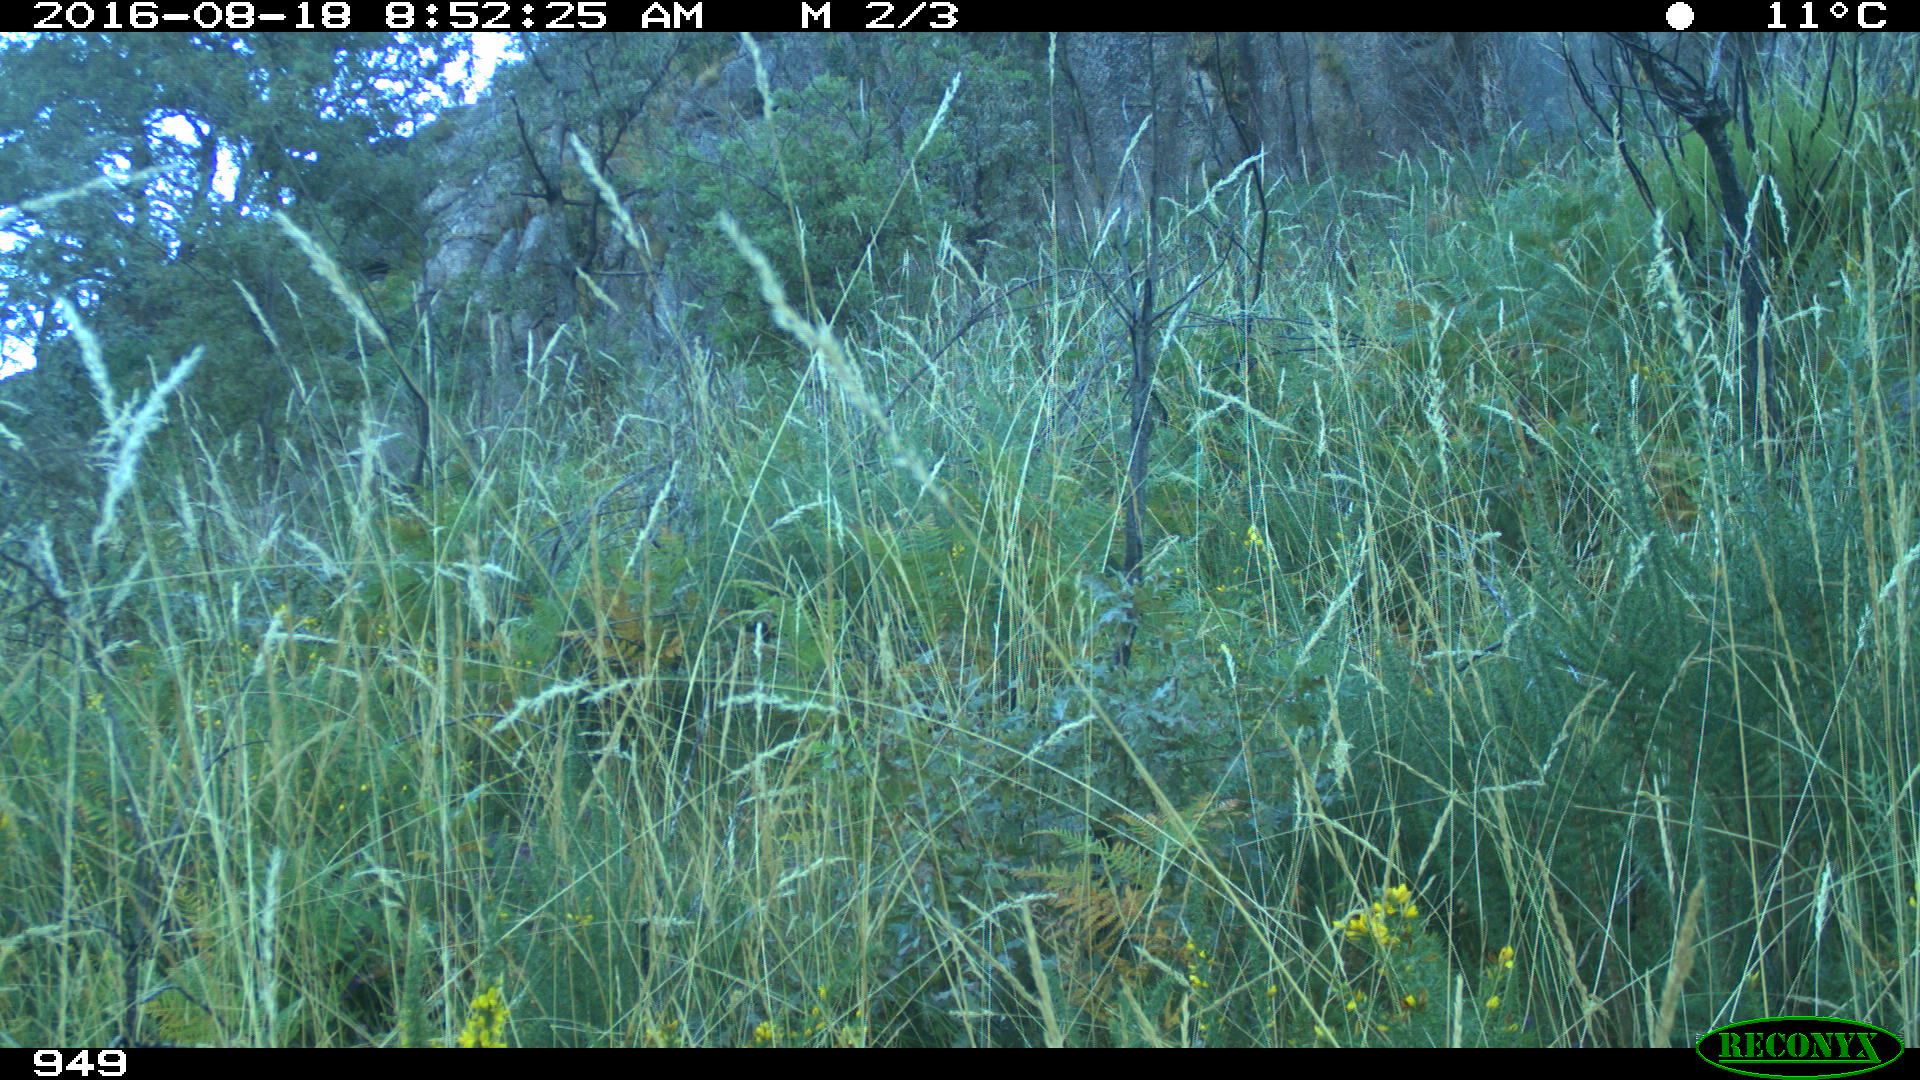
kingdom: Animalia
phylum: Chordata
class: Mammalia
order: Artiodactyla
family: Bovidae
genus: Ovis
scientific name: Ovis aries
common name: Domestic sheep
